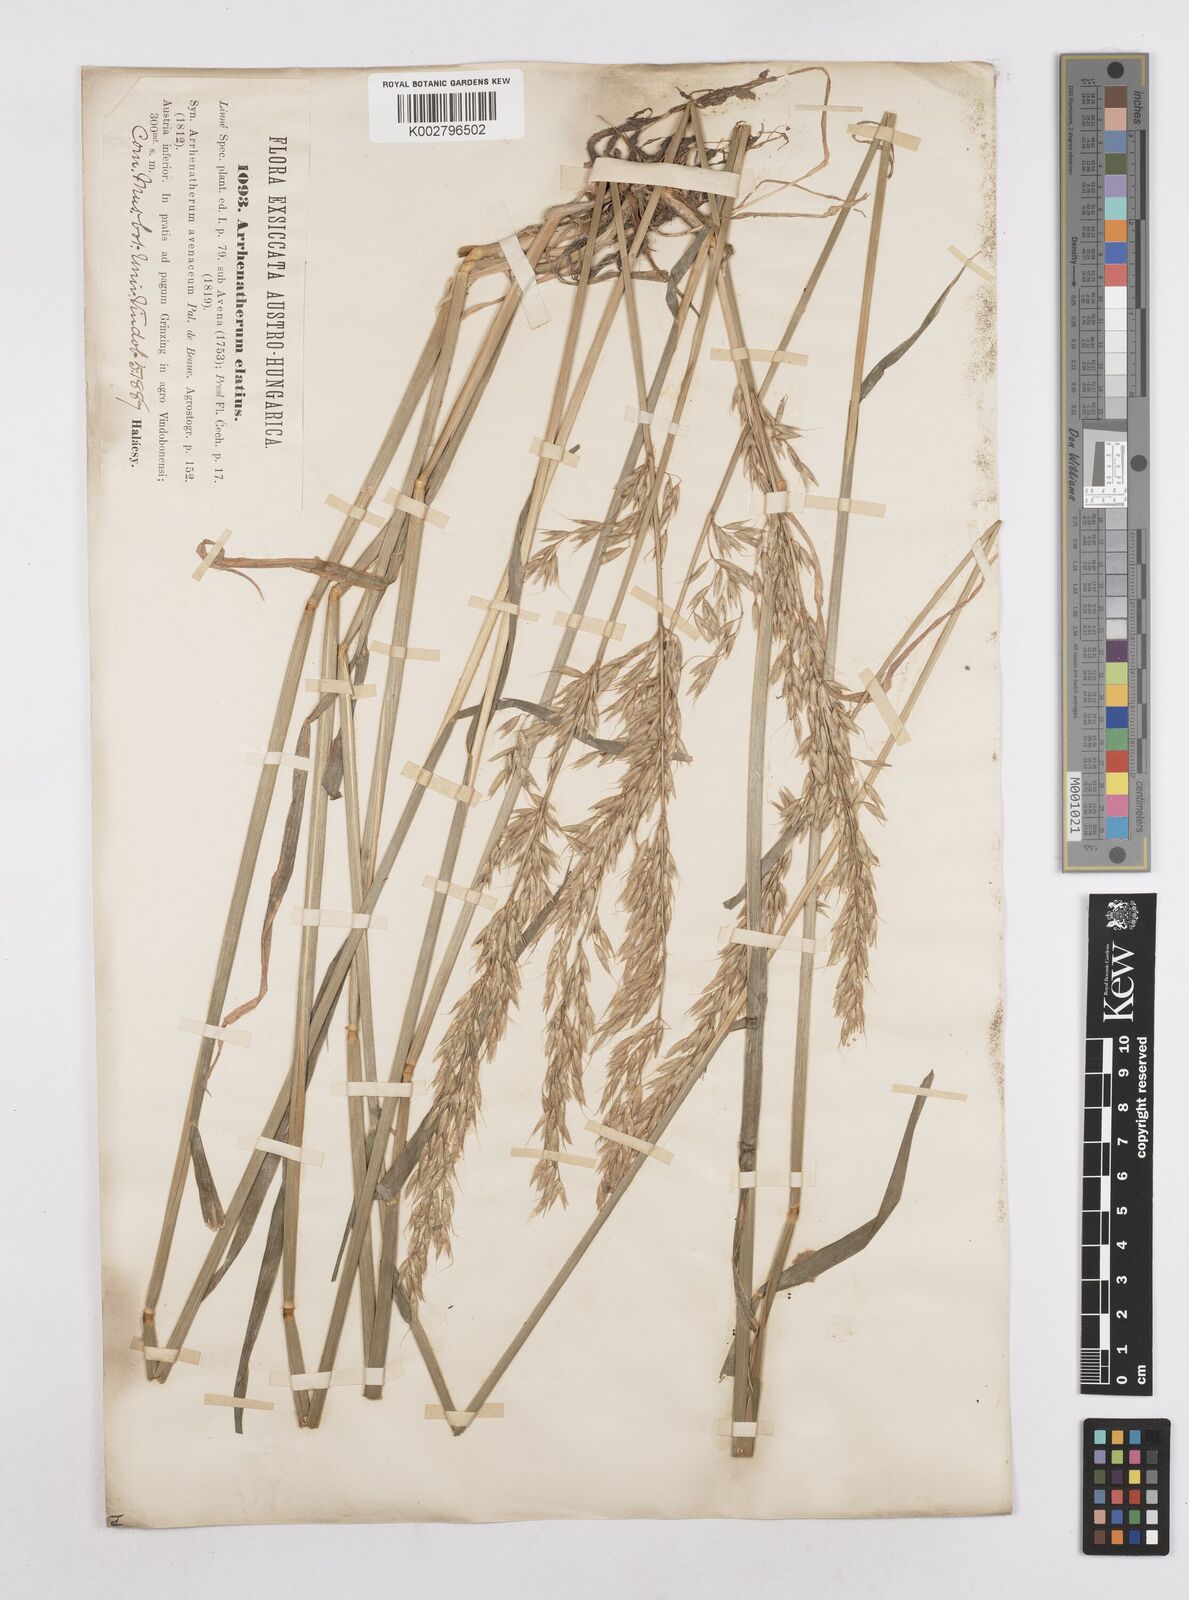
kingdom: Plantae
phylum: Tracheophyta
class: Liliopsida
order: Poales
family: Poaceae
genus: Arrhenatherum
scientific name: Arrhenatherum elatius
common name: Tall oatgrass
